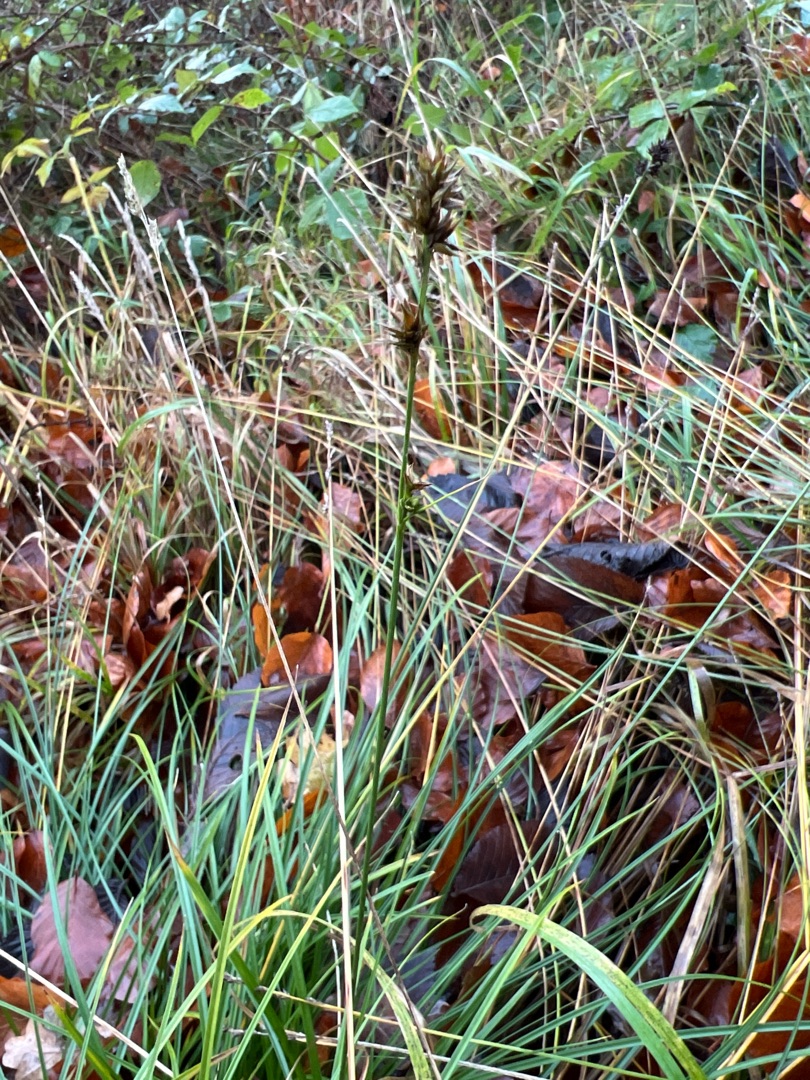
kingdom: Plantae
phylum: Tracheophyta
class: Liliopsida
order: Poales
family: Cyperaceae
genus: Carex
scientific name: Carex leersii
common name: Mellembrudt star (underart)
